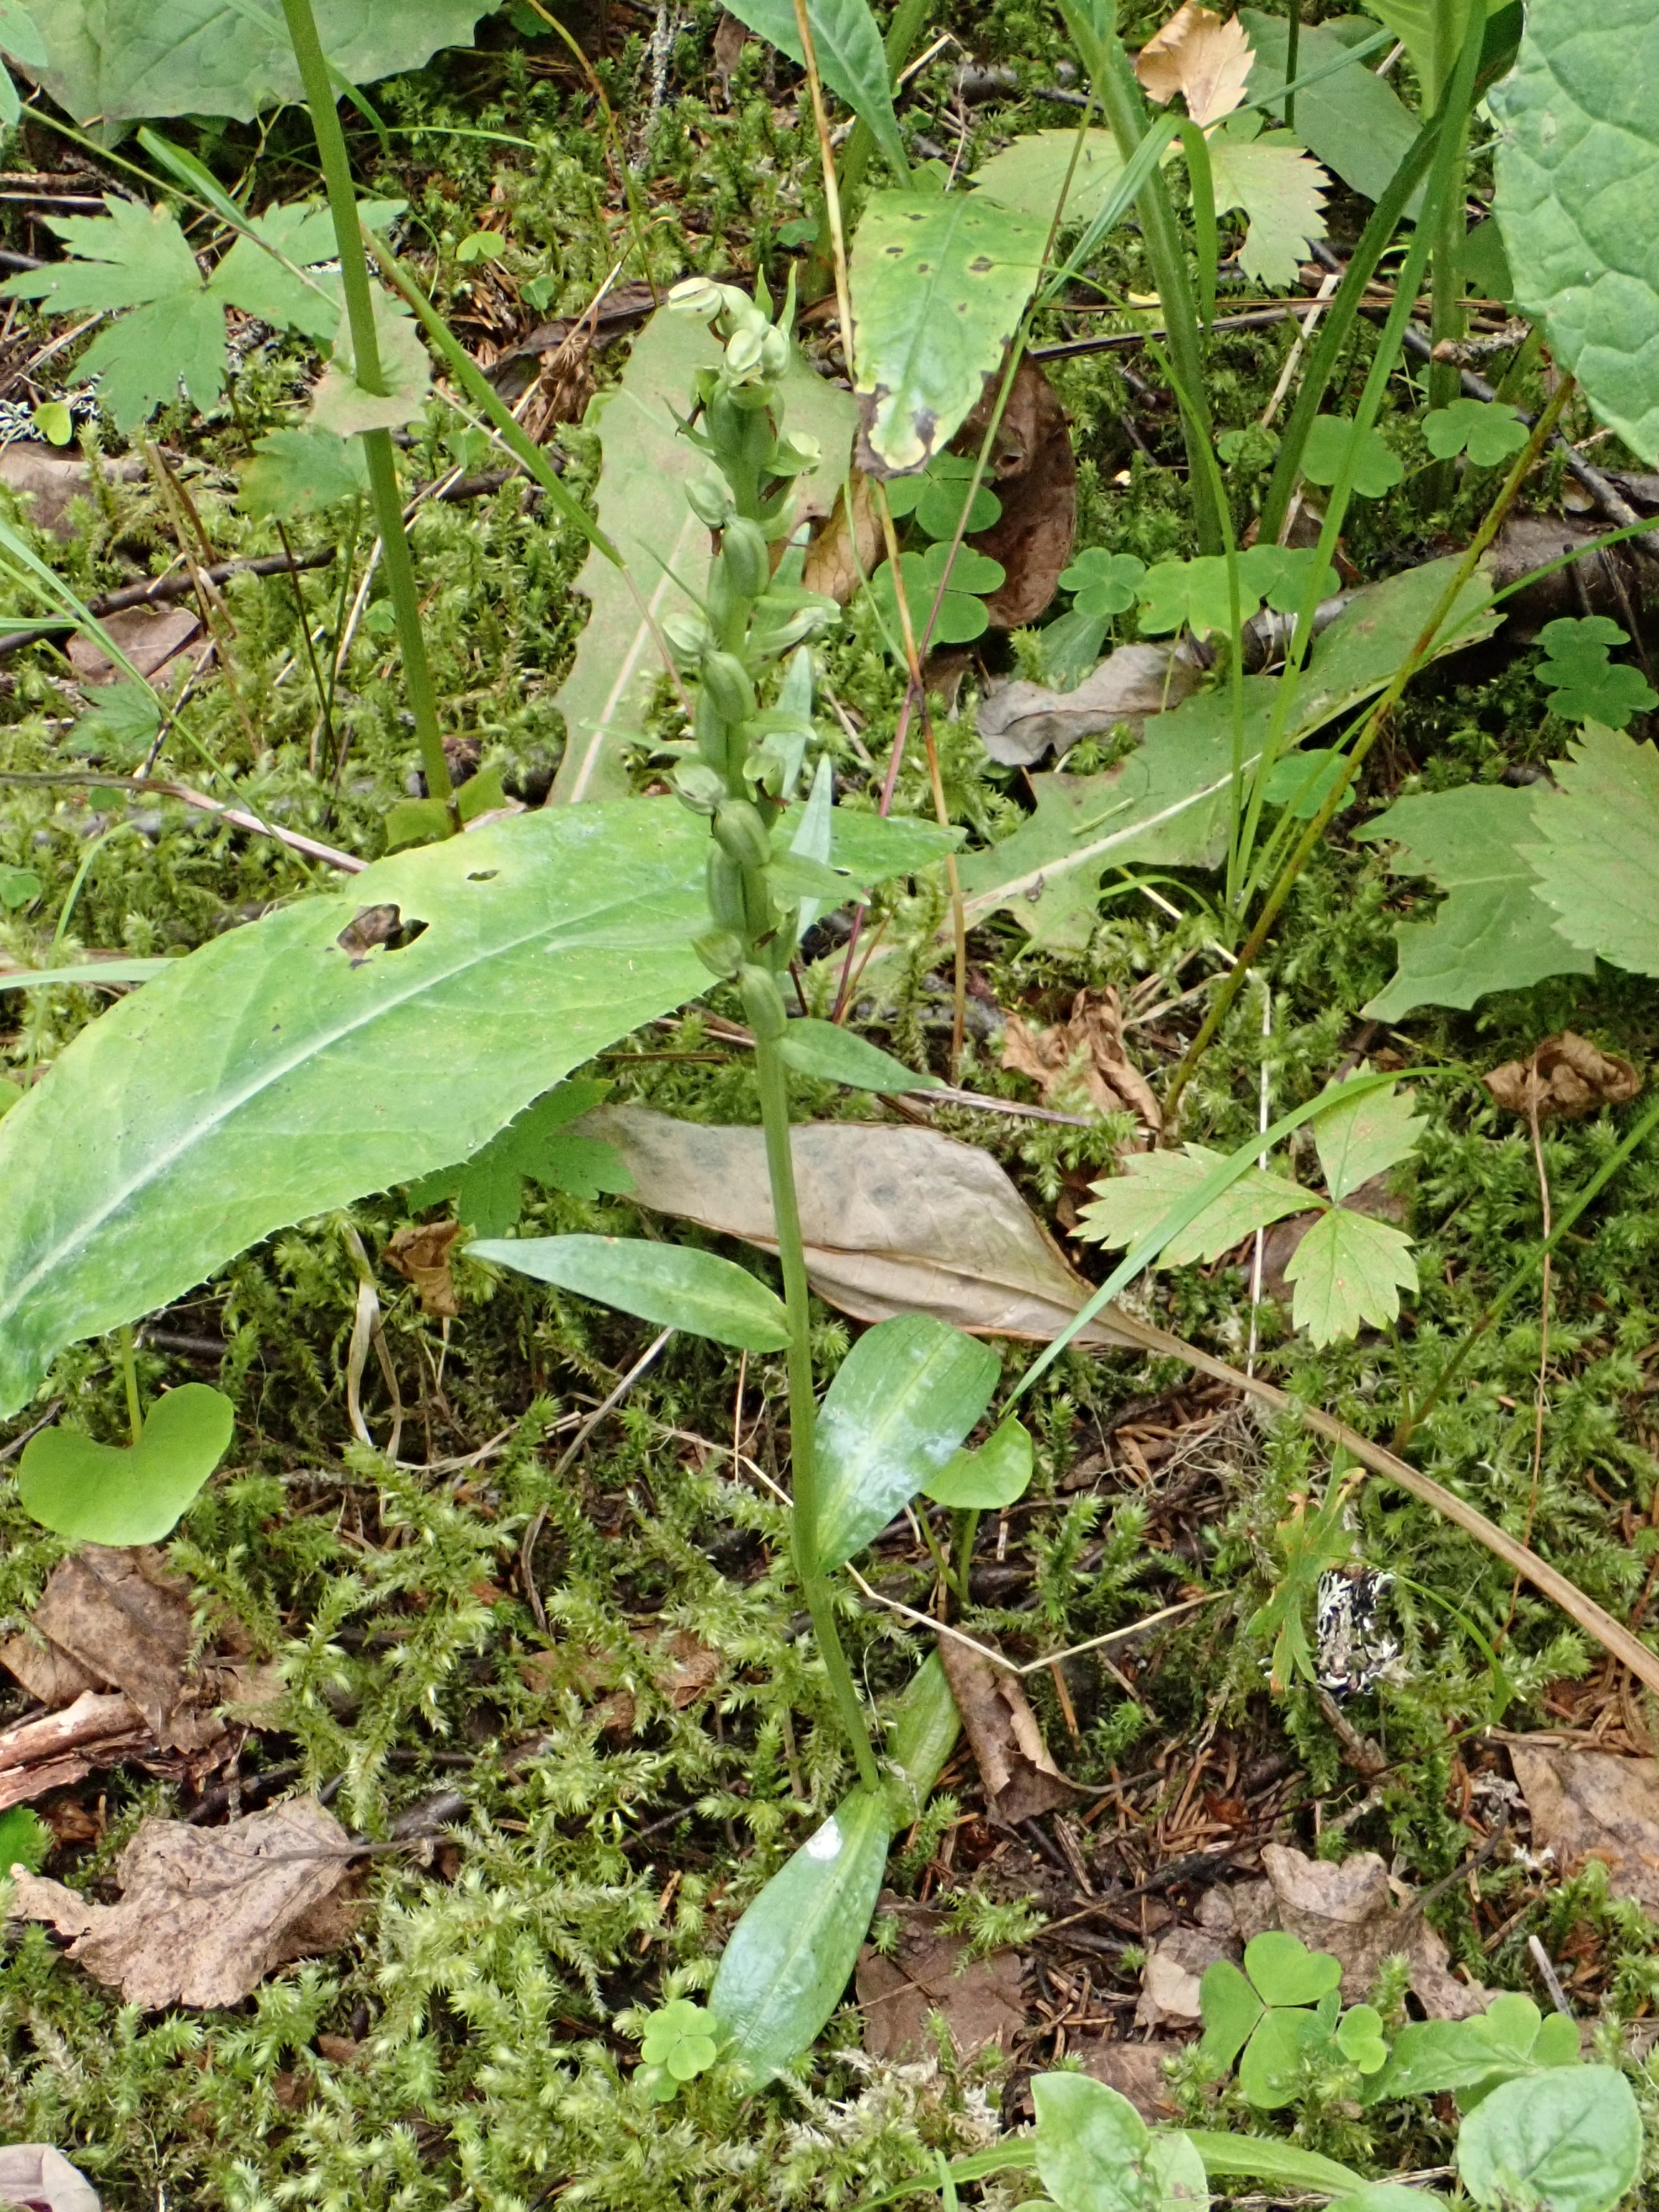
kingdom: Plantae
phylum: Tracheophyta
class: Liliopsida
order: Asparagales
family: Orchidaceae
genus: Dactylorhiza
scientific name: Dactylorhiza viridis
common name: Longbract frog orchid
